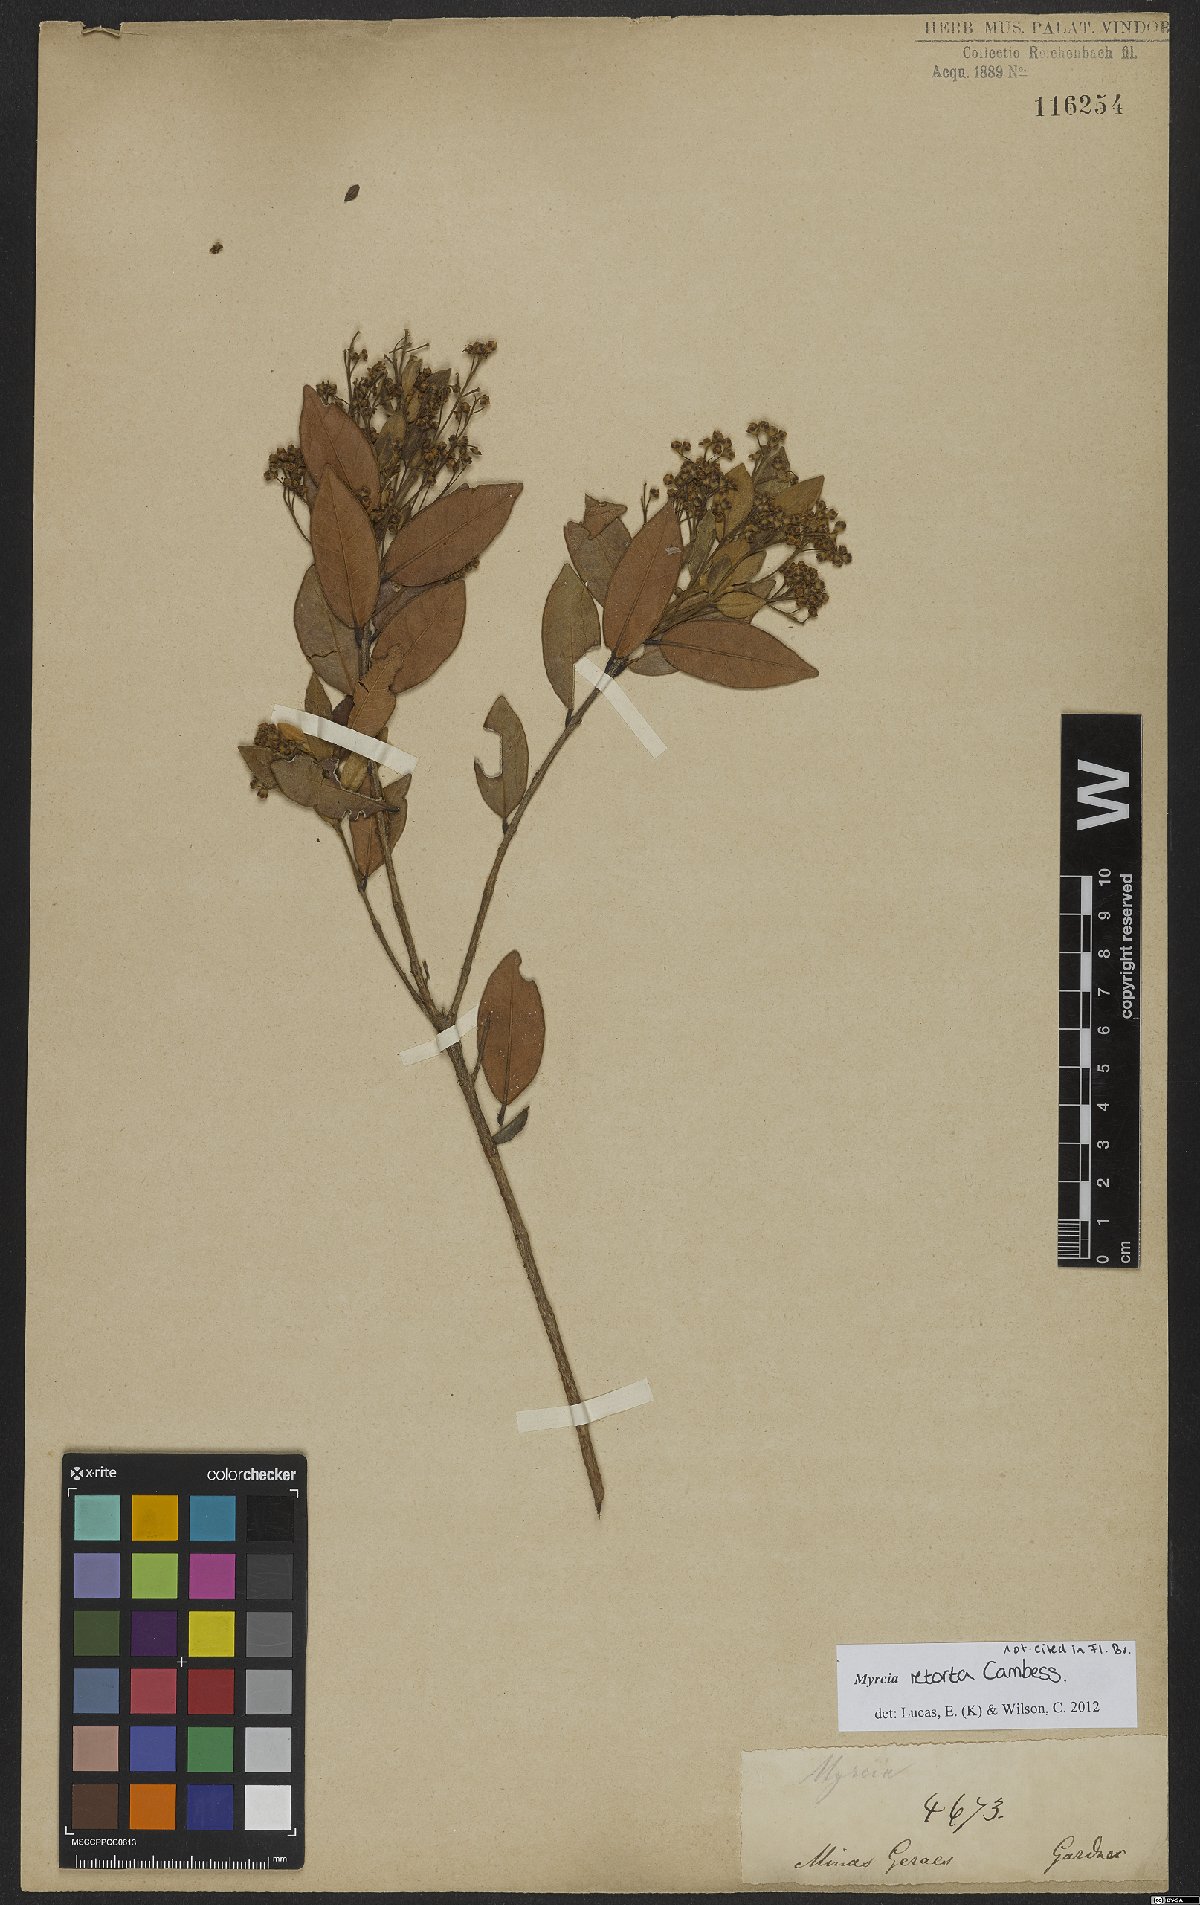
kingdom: Plantae
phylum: Tracheophyta
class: Magnoliopsida
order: Myrtales
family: Myrtaceae
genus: Myrcia
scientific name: Myrcia retorta
